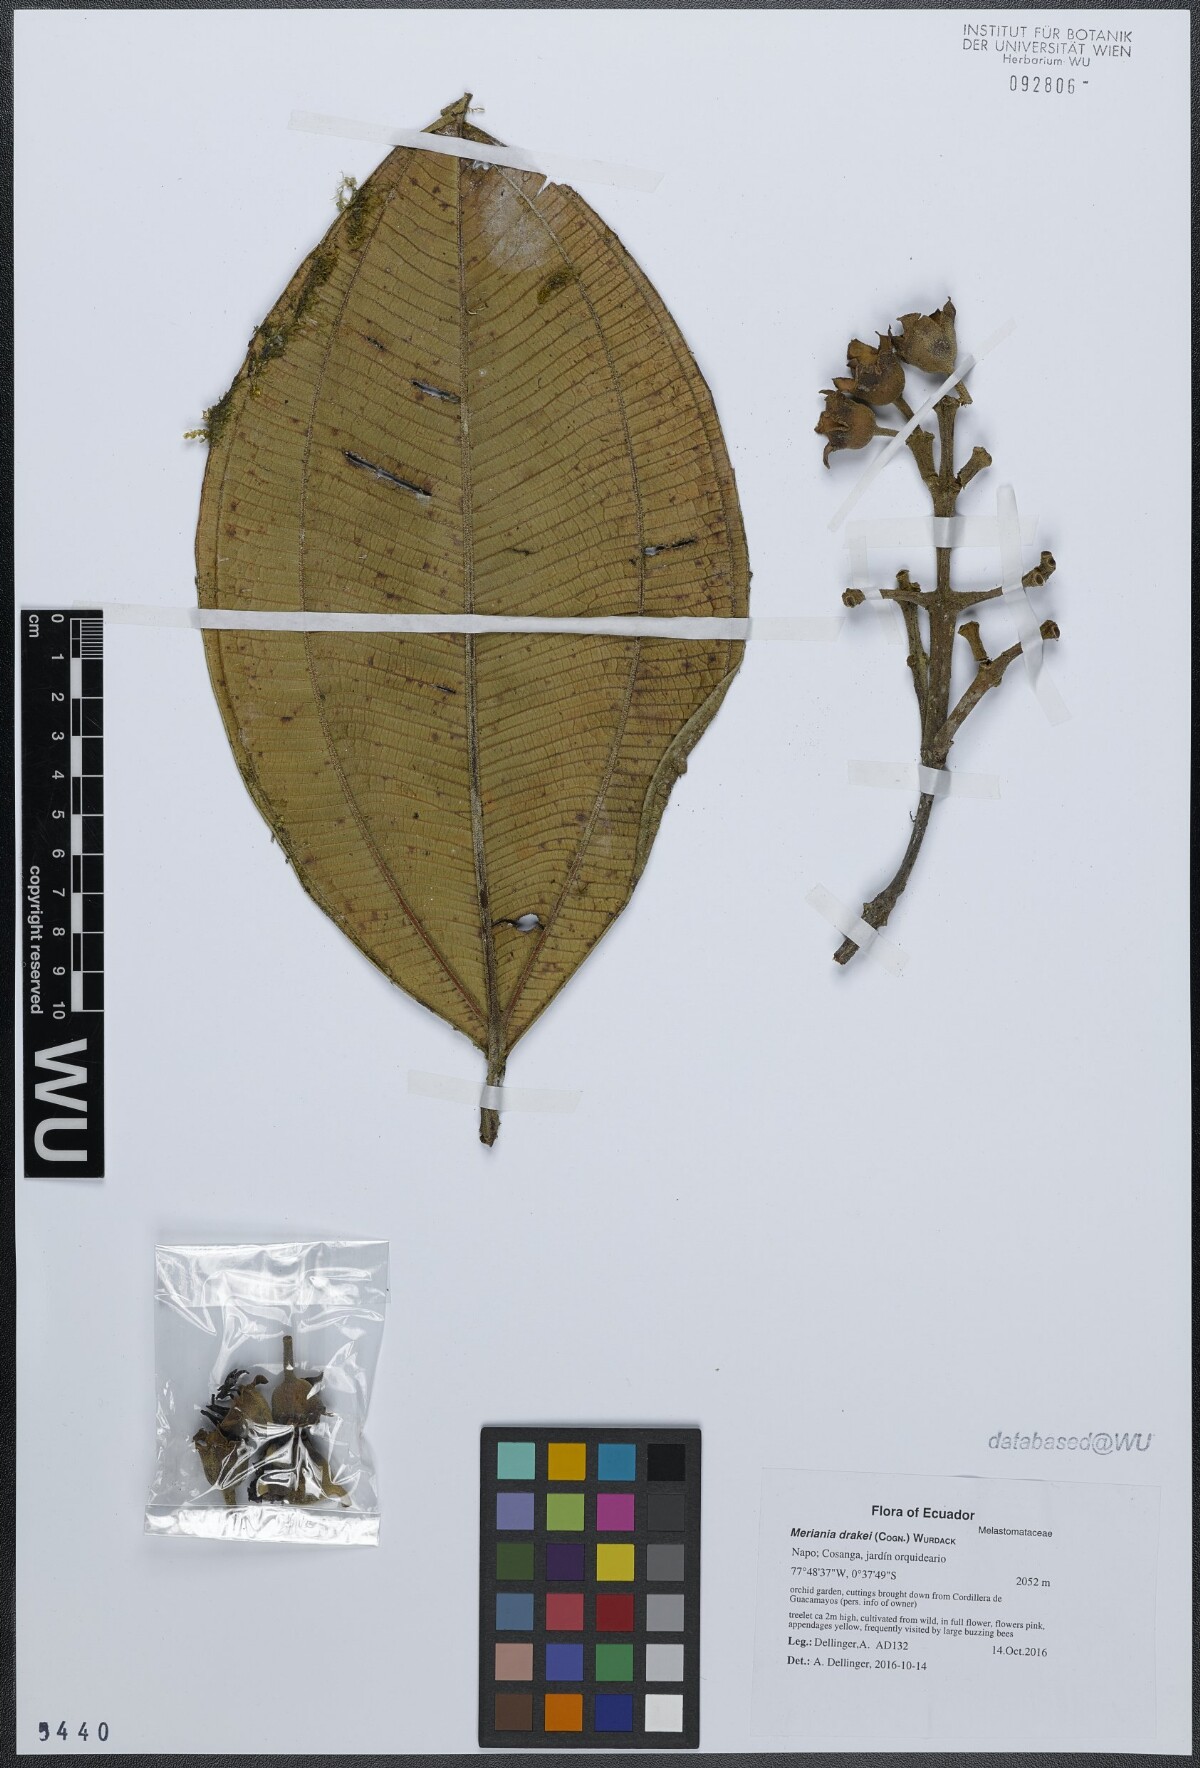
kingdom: Plantae
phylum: Tracheophyta
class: Magnoliopsida
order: Myrtales
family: Melastomataceae
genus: Meriania
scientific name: Meriania drakei
